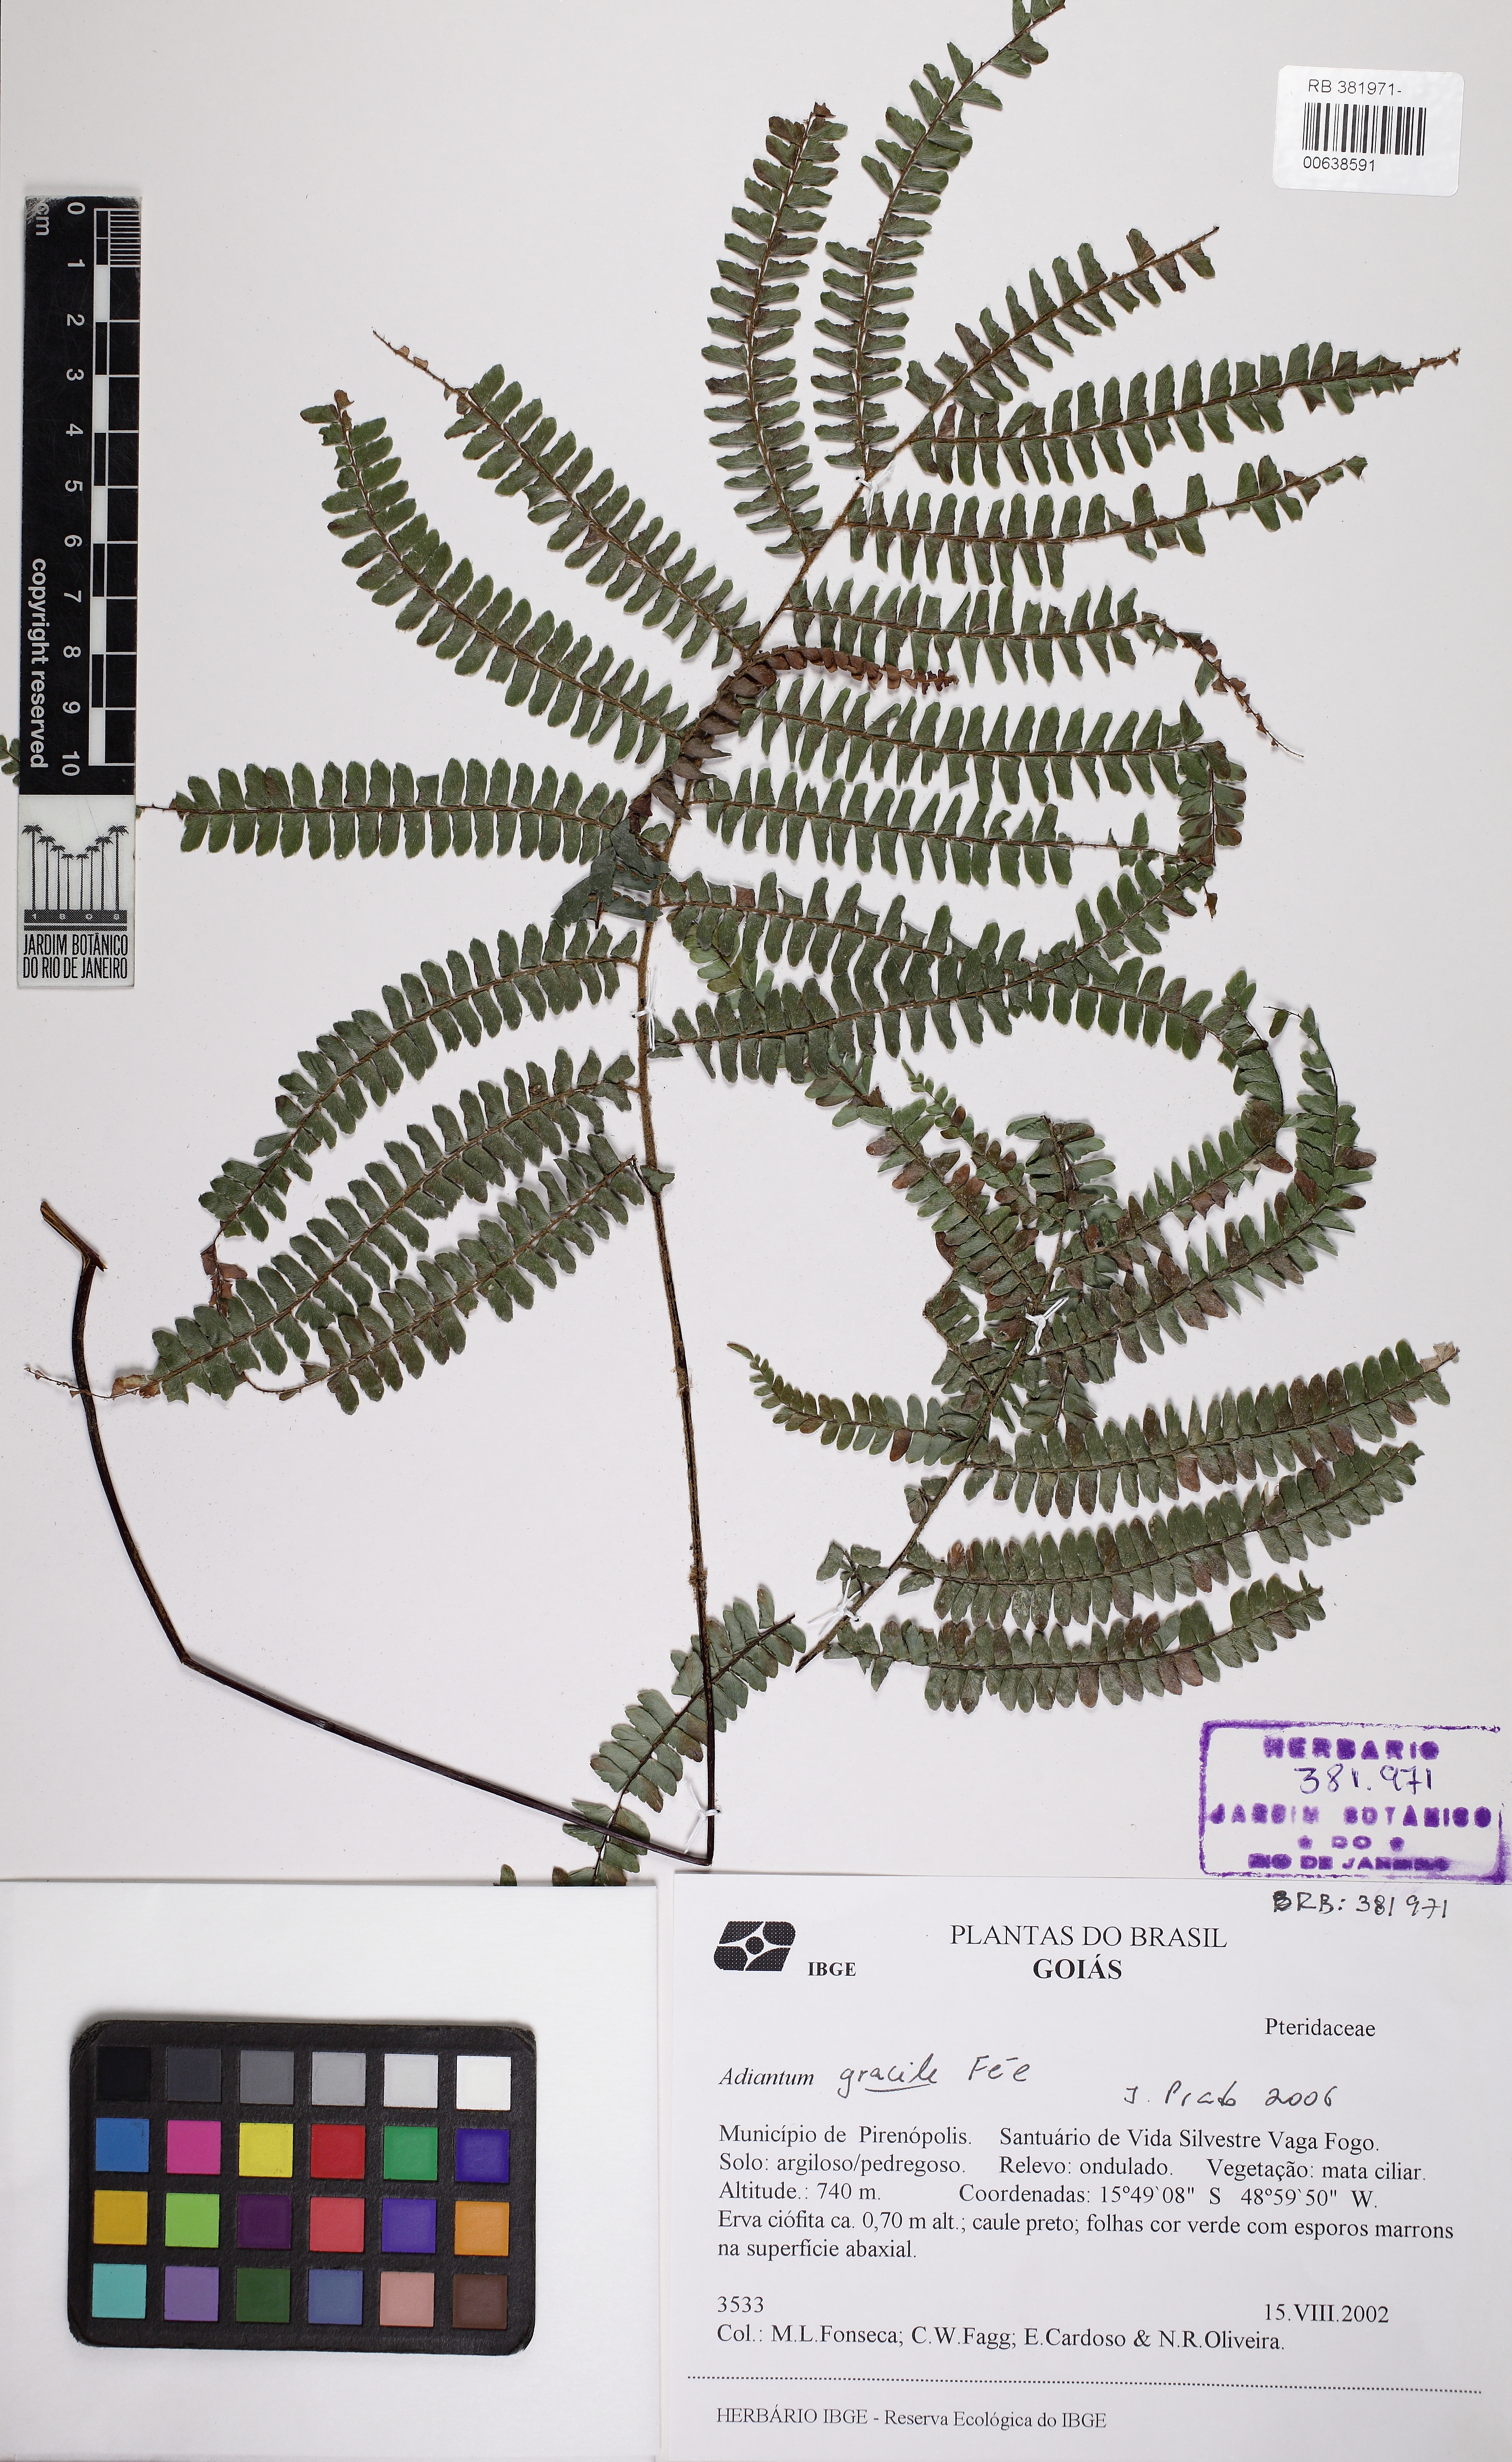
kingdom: Plantae
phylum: Tracheophyta
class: Polypodiopsida
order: Polypodiales
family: Pteridaceae
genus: Adiantum
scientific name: Adiantum gracile
